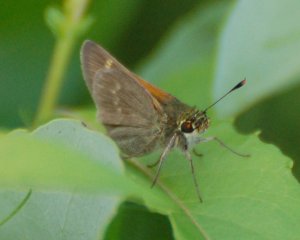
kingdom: Animalia
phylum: Arthropoda
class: Insecta
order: Lepidoptera
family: Hesperiidae
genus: Polites
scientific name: Polites themistocles
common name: Tawny-edged Skipper
